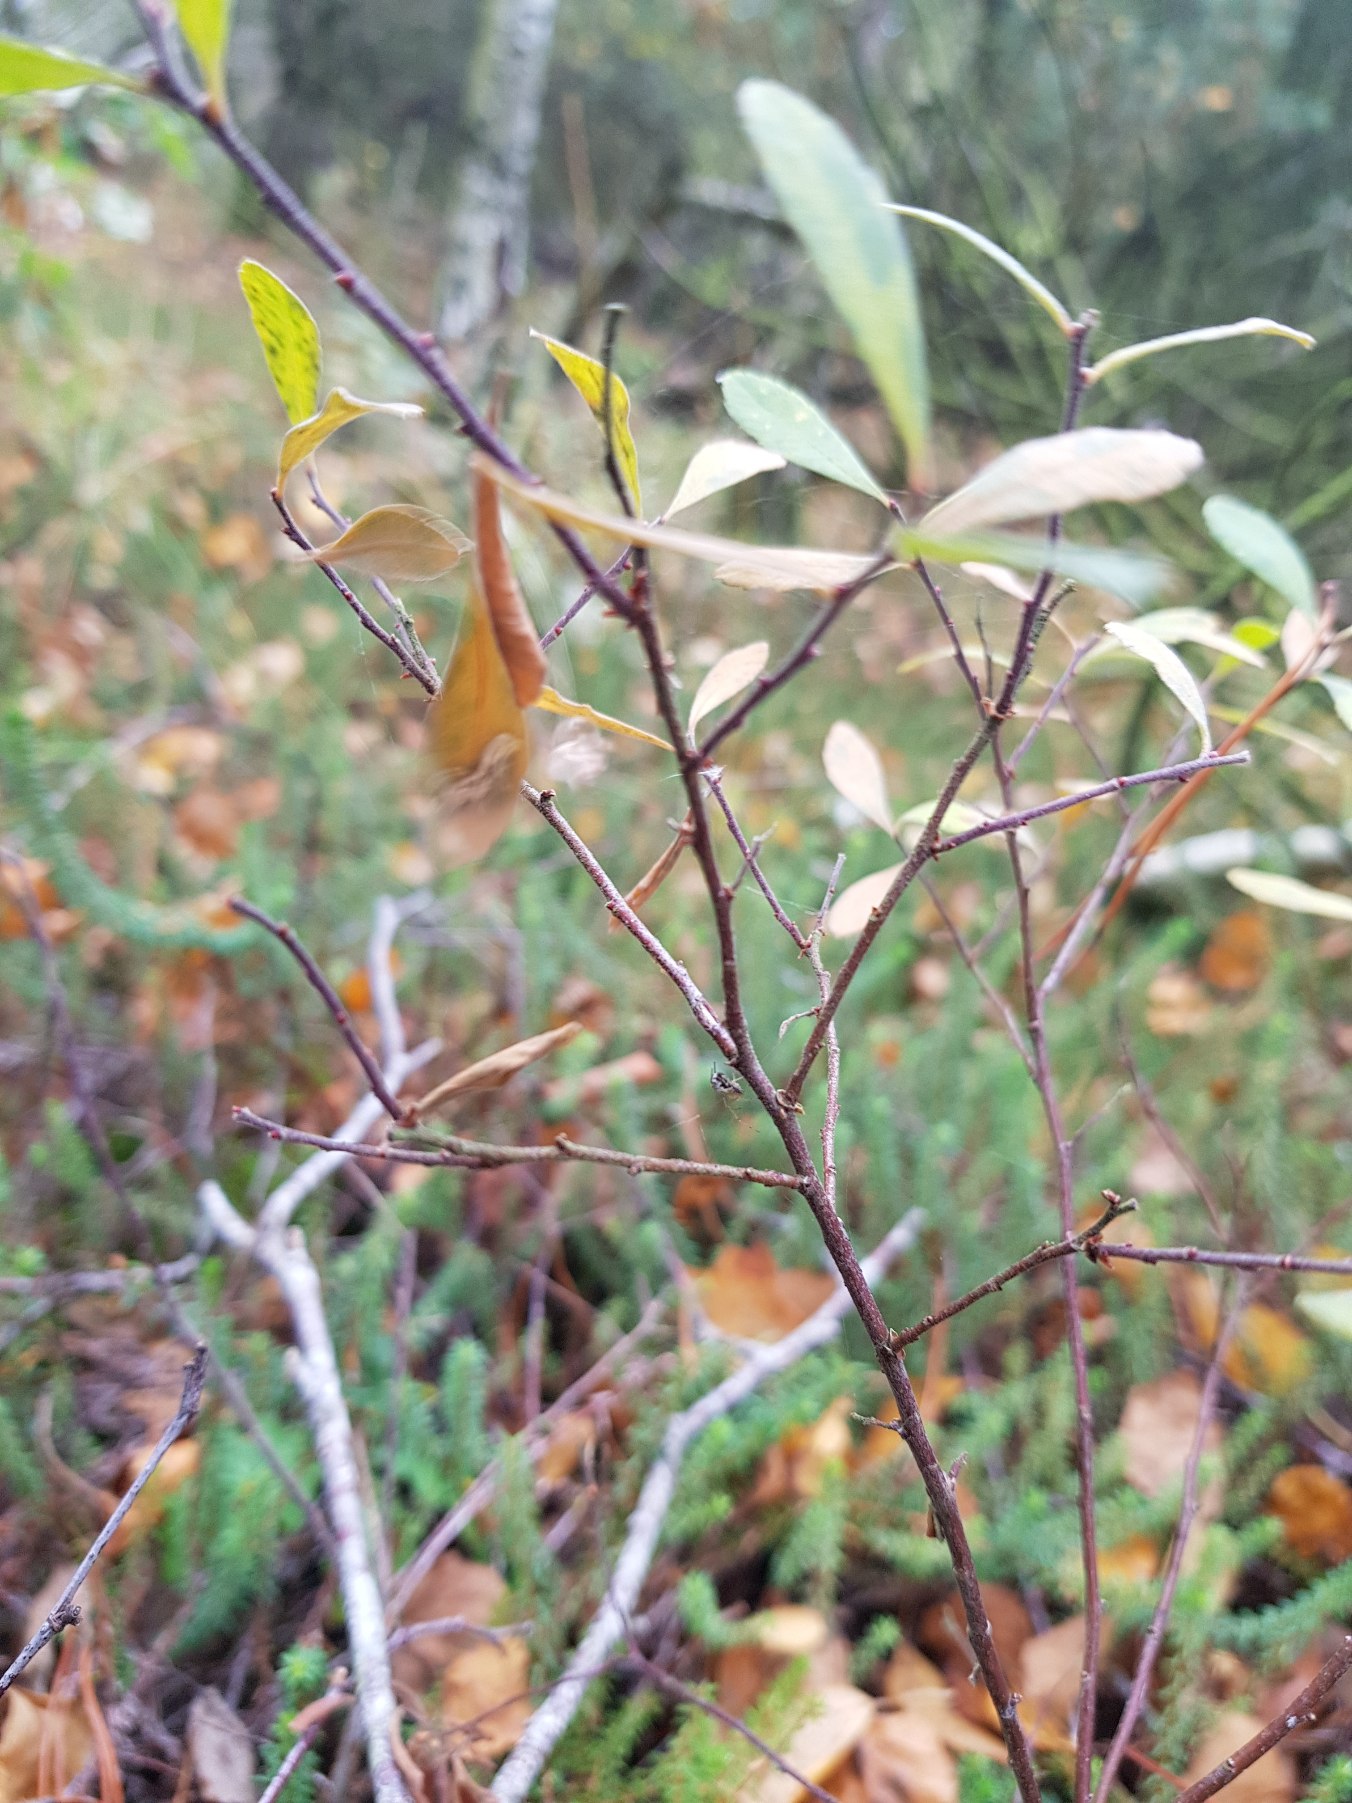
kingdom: Plantae
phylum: Tracheophyta
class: Magnoliopsida
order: Fagales
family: Myricaceae
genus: Myrica
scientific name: Myrica gale
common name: Pors
